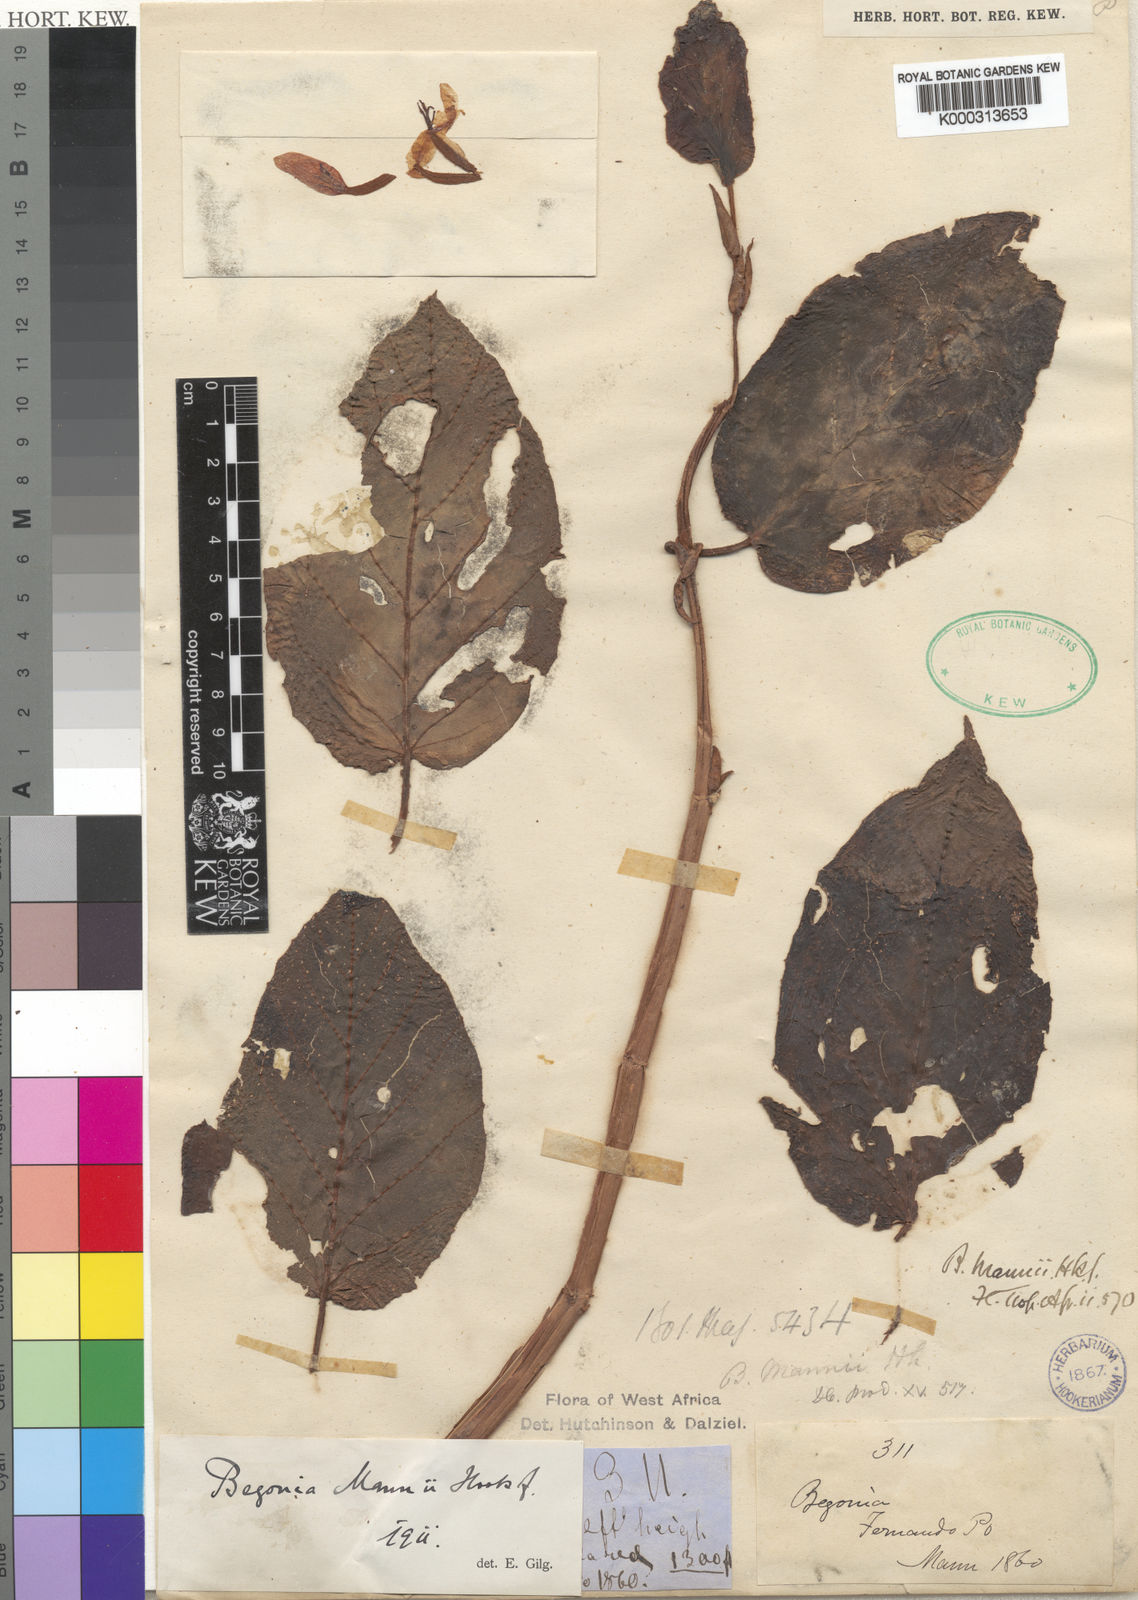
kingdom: Plantae
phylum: Tracheophyta
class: Magnoliopsida
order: Cucurbitales
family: Begoniaceae
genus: Begonia
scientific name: Begonia mannii
